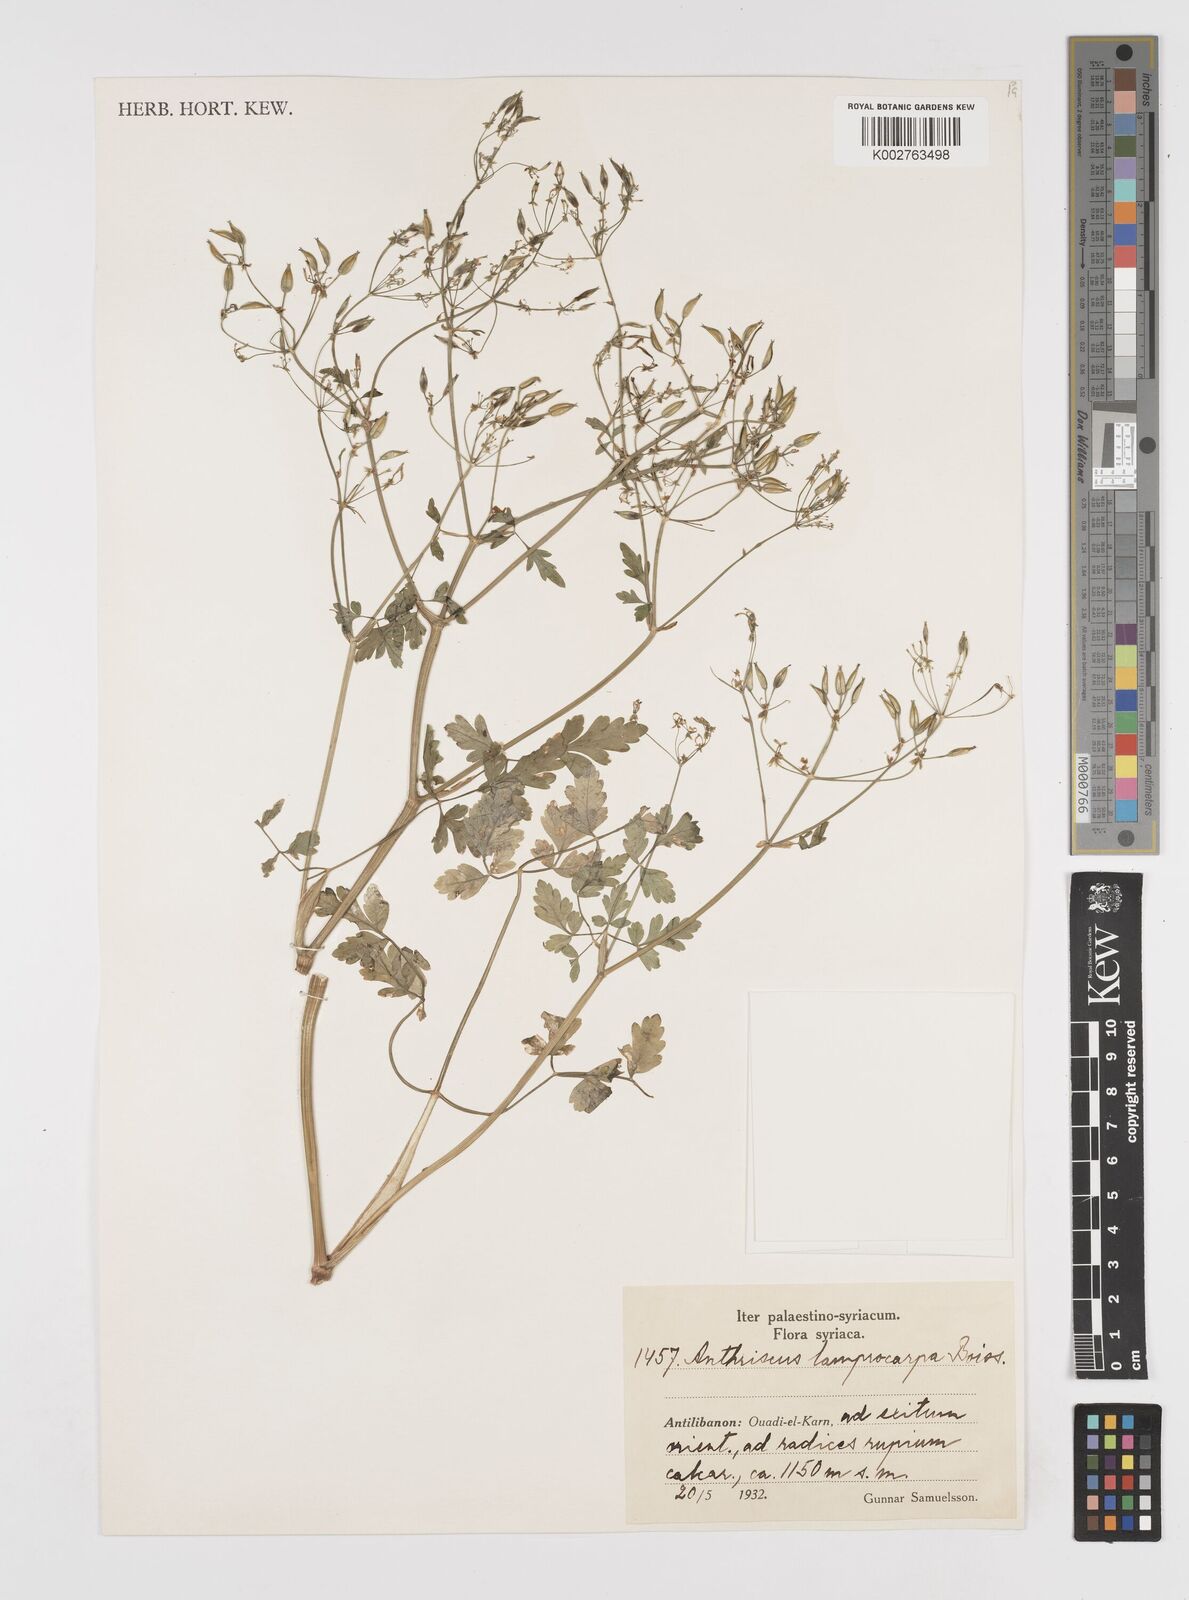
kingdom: Plantae
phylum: Tracheophyta
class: Magnoliopsida
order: Apiales
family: Apiaceae
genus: Anthriscus
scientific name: Anthriscus lamprocarpa
